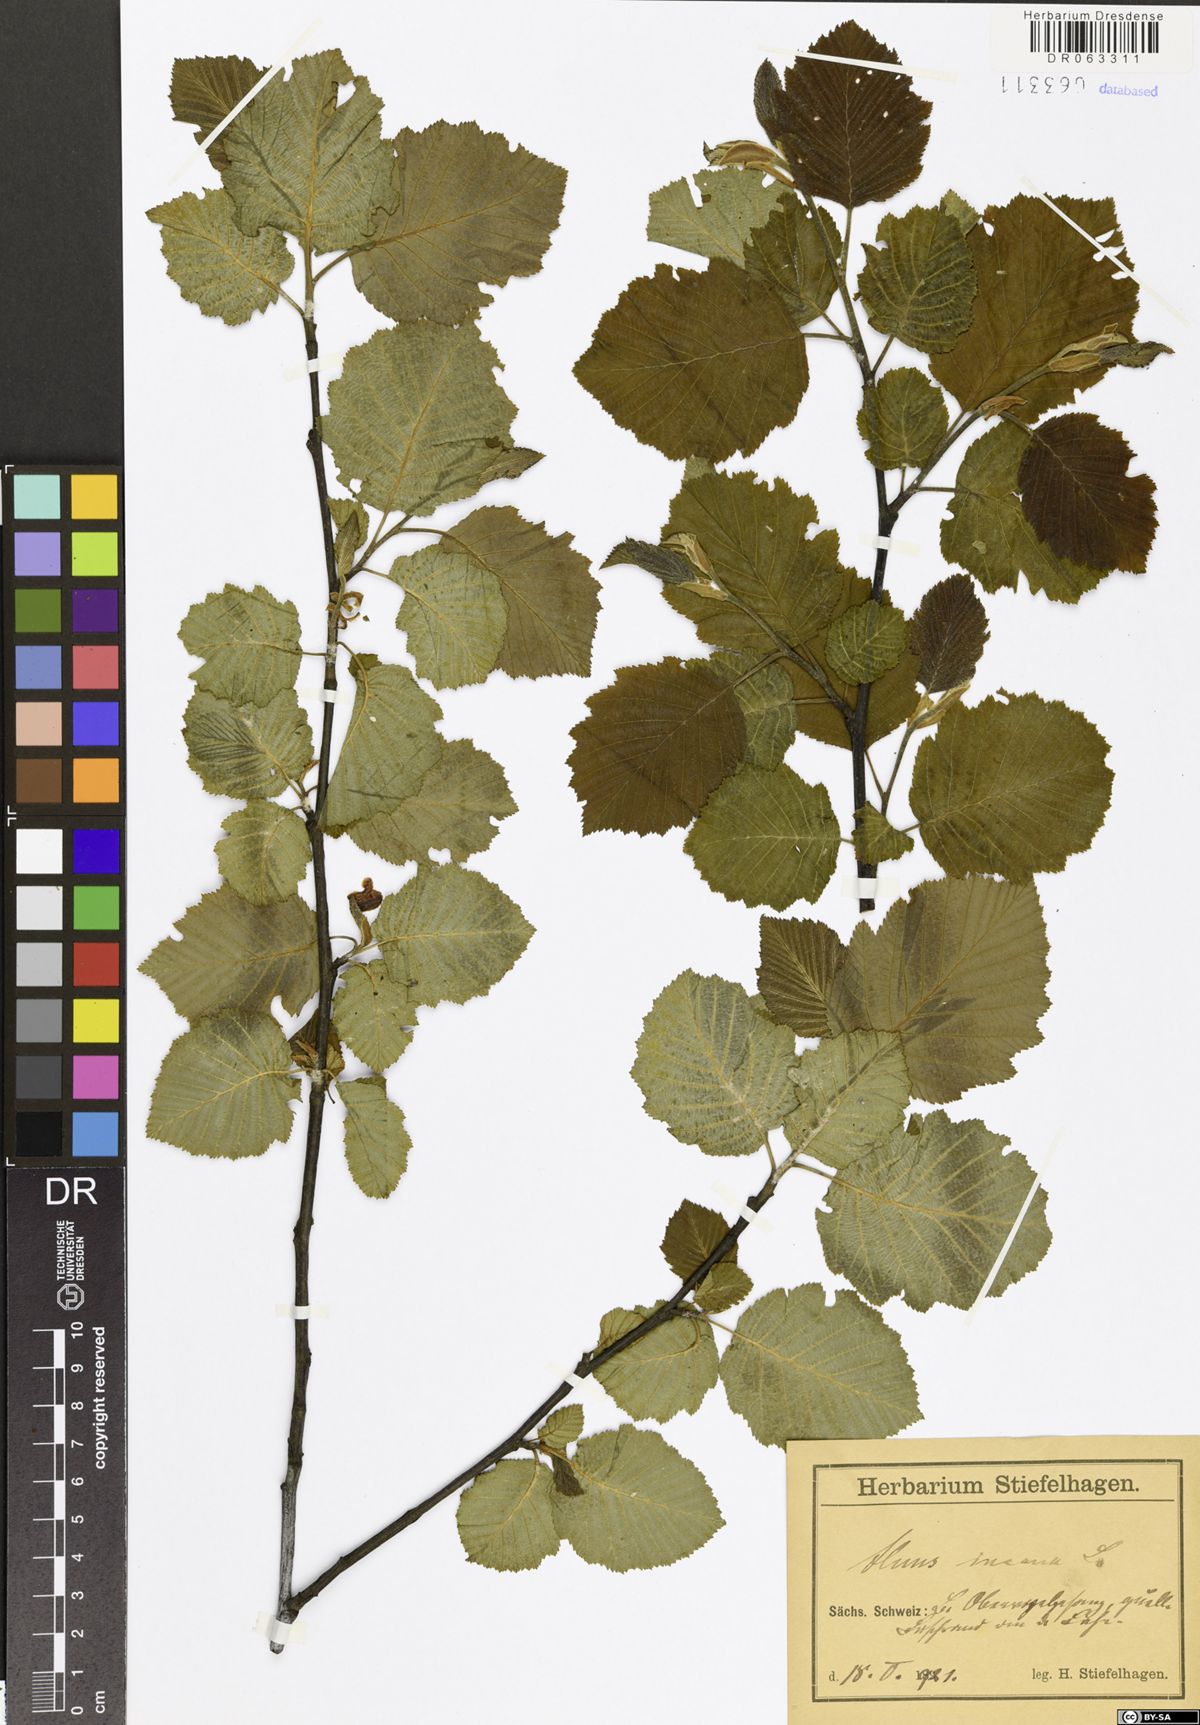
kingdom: Plantae
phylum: Tracheophyta
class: Magnoliopsida
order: Fagales
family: Betulaceae
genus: Alnus
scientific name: Alnus incana
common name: Grey alder
